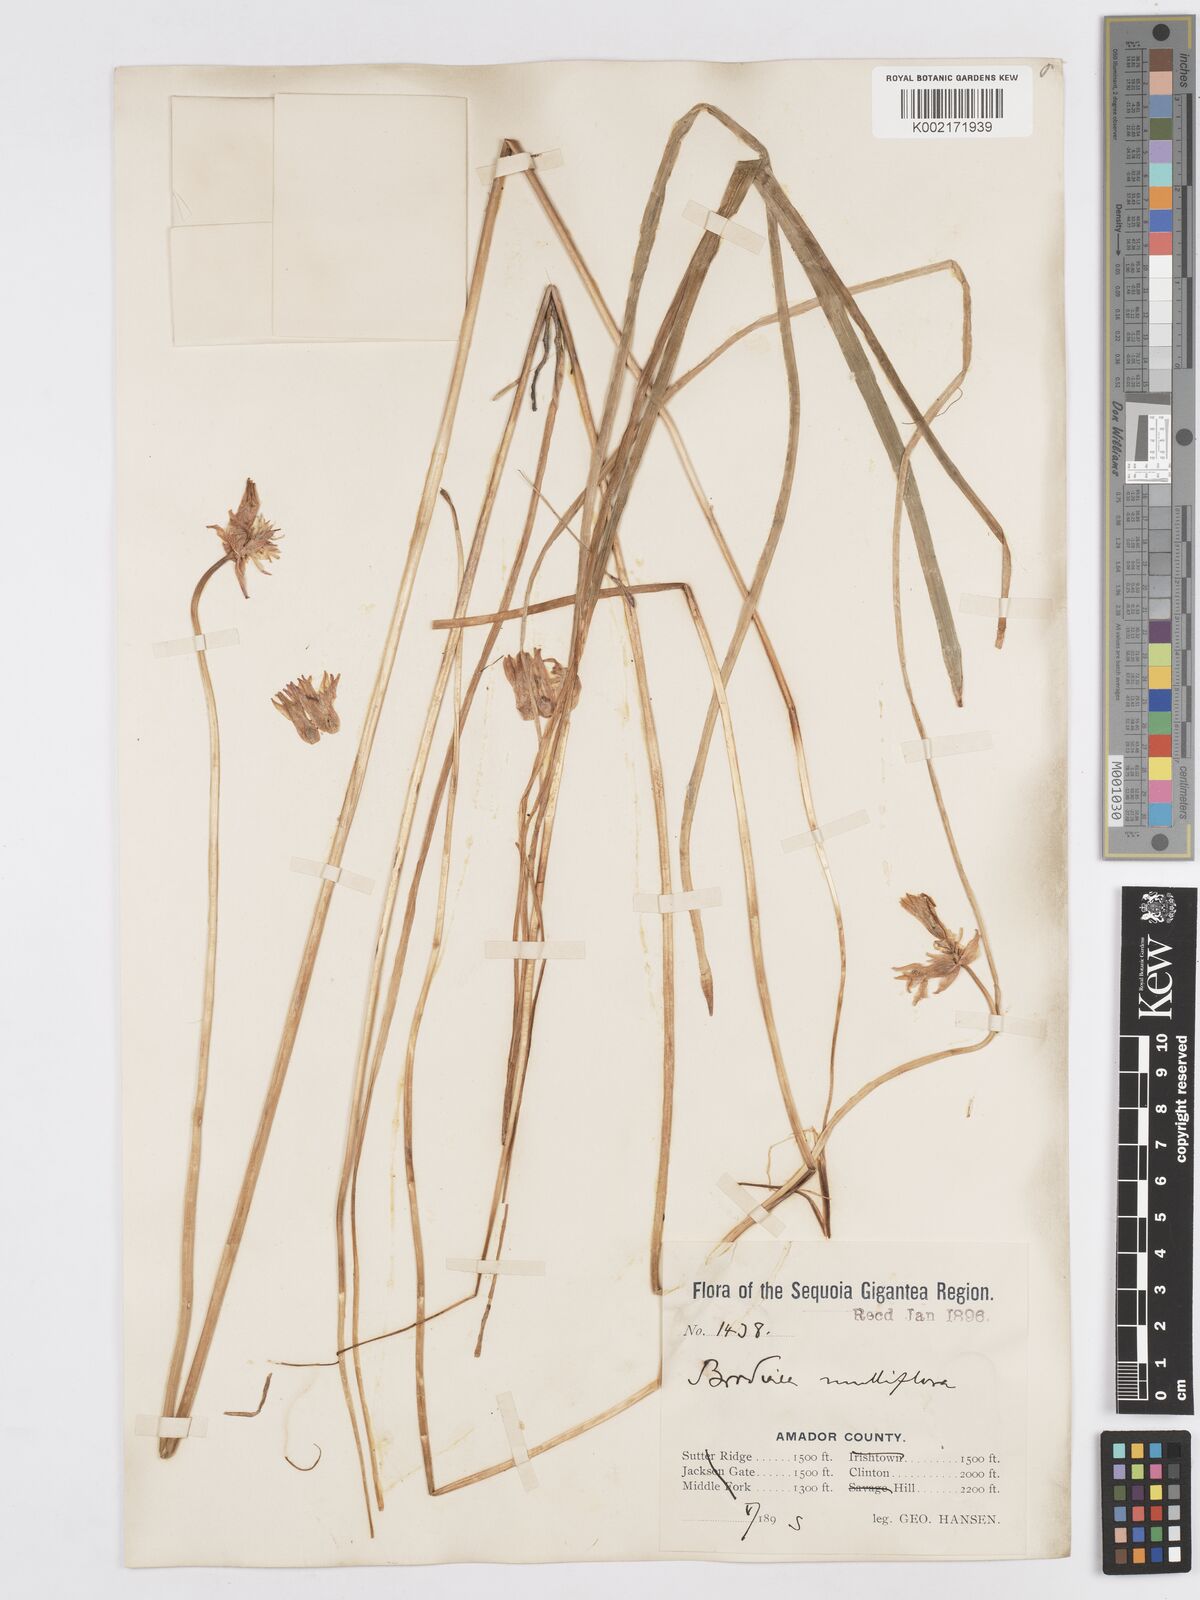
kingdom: Plantae
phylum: Tracheophyta
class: Liliopsida
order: Asparagales
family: Asparagaceae
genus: Dichelostemma
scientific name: Dichelostemma congestum
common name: Fork-tooth ookow
